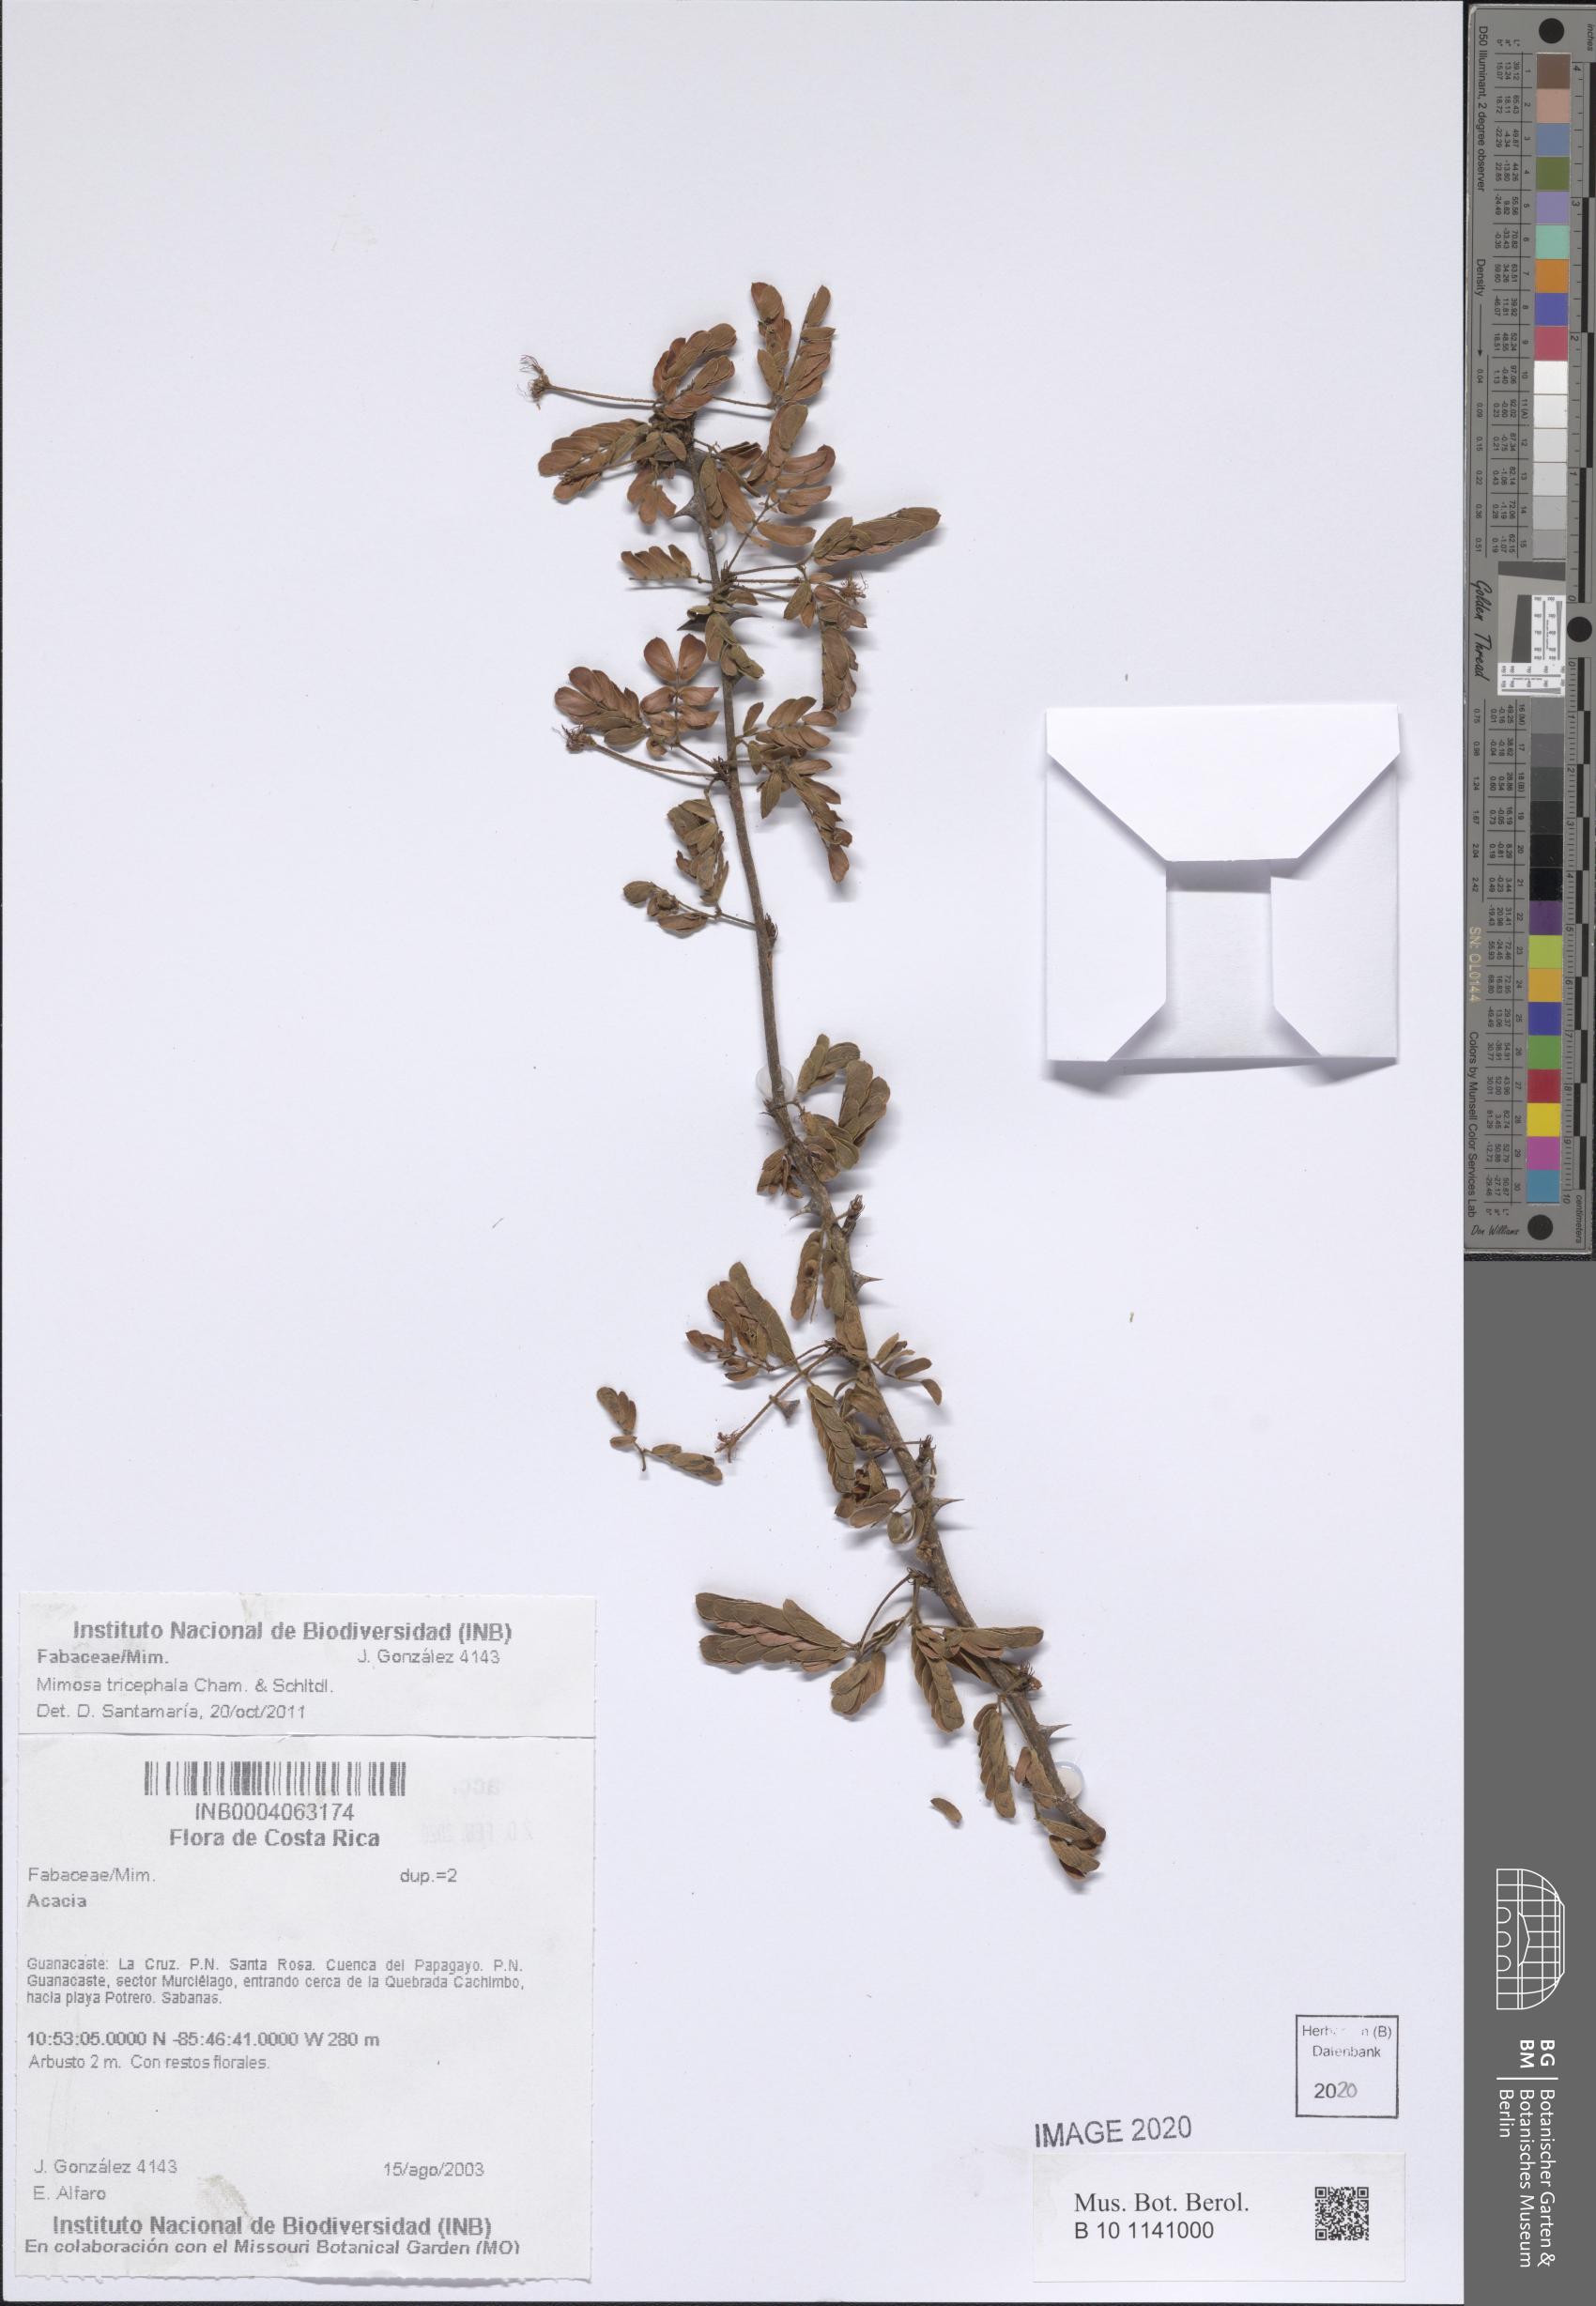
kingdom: Plantae
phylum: Tracheophyta
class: Magnoliopsida
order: Fabales
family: Fabaceae
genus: Mimosa
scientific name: Mimosa tricephala
